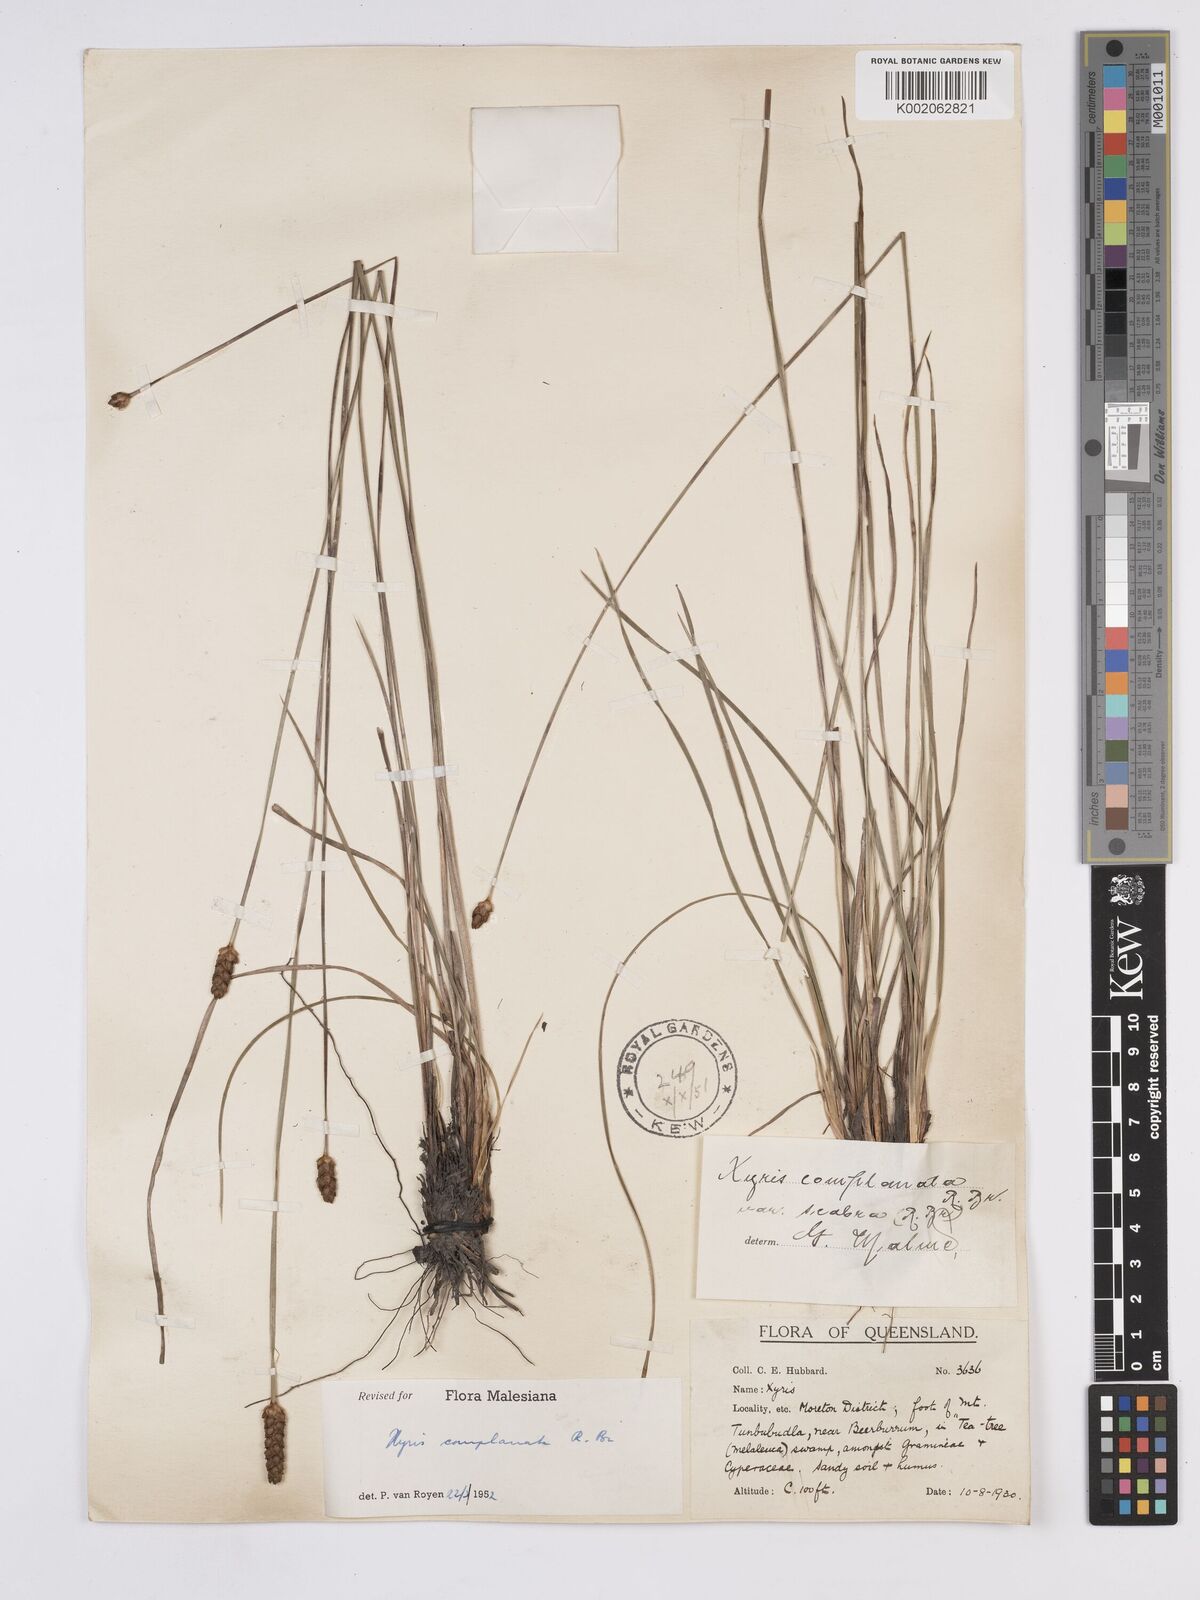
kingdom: Plantae
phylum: Tracheophyta
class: Liliopsida
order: Poales
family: Xyridaceae
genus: Xyris
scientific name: Xyris complanata
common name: Hawai'i yelloweyed grass
